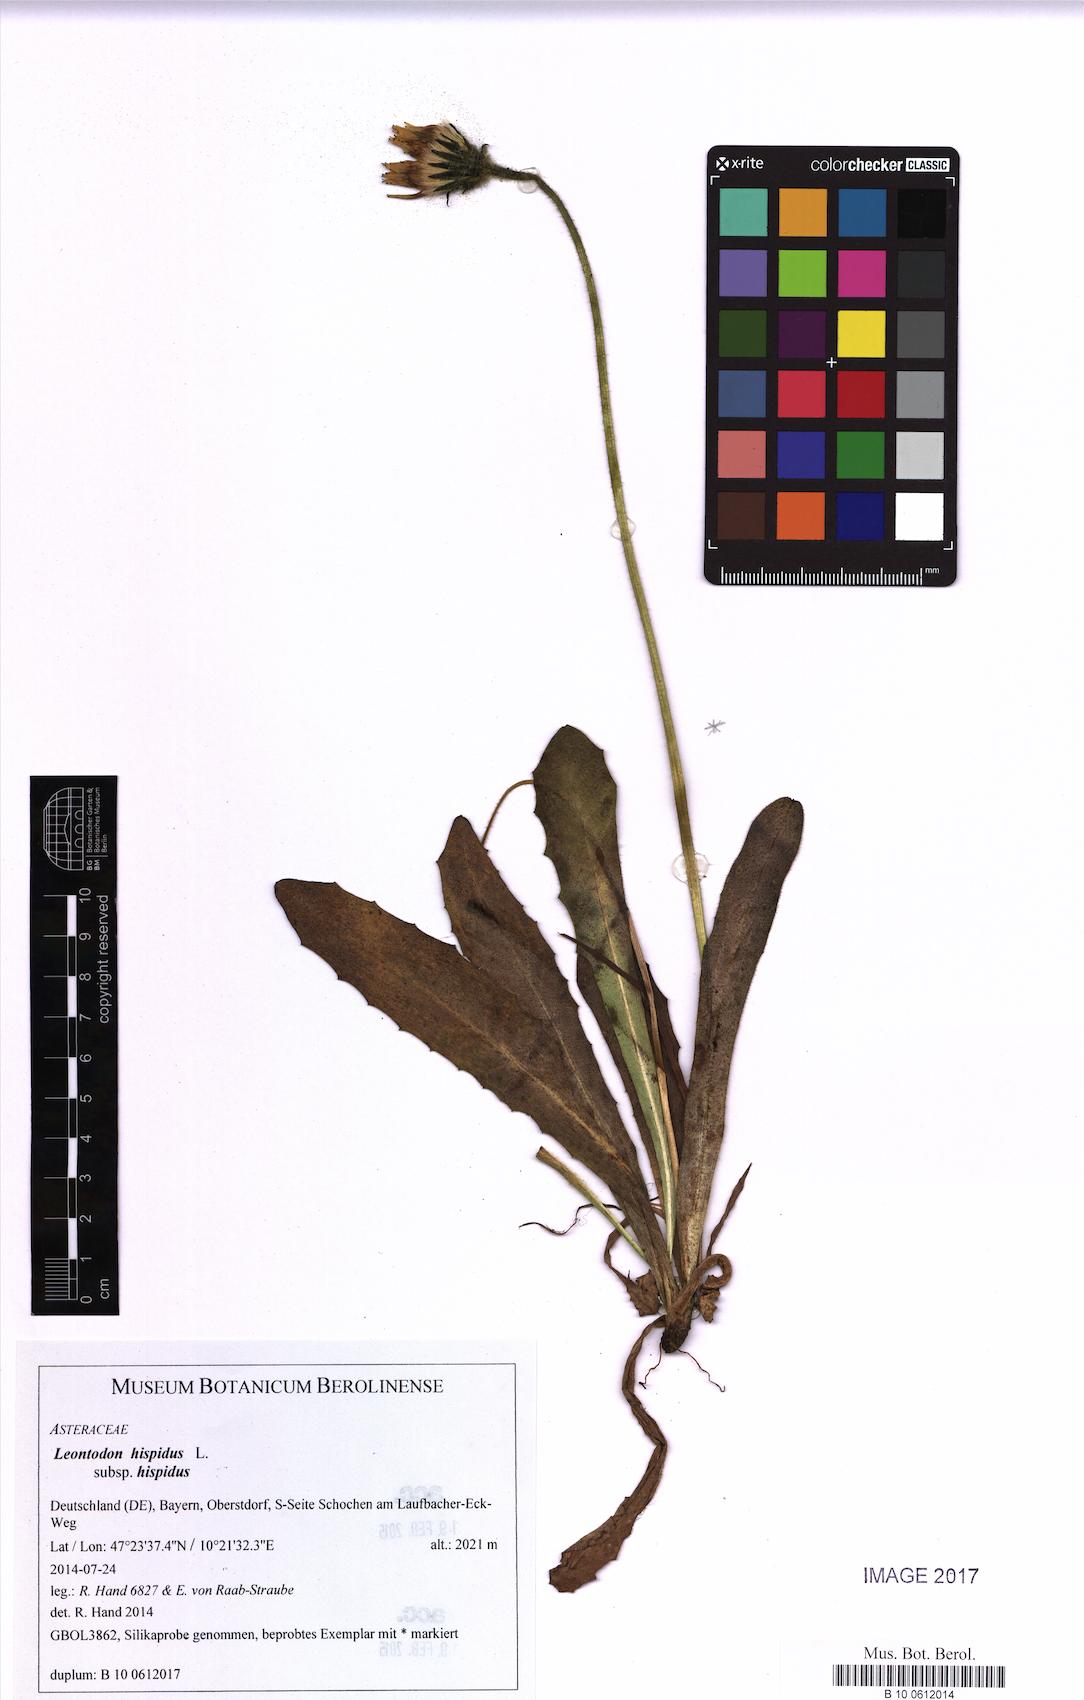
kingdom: Plantae
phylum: Tracheophyta
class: Magnoliopsida
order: Asterales
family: Asteraceae
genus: Leontodon
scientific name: Leontodon hispidus
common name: Rough hawkbit
